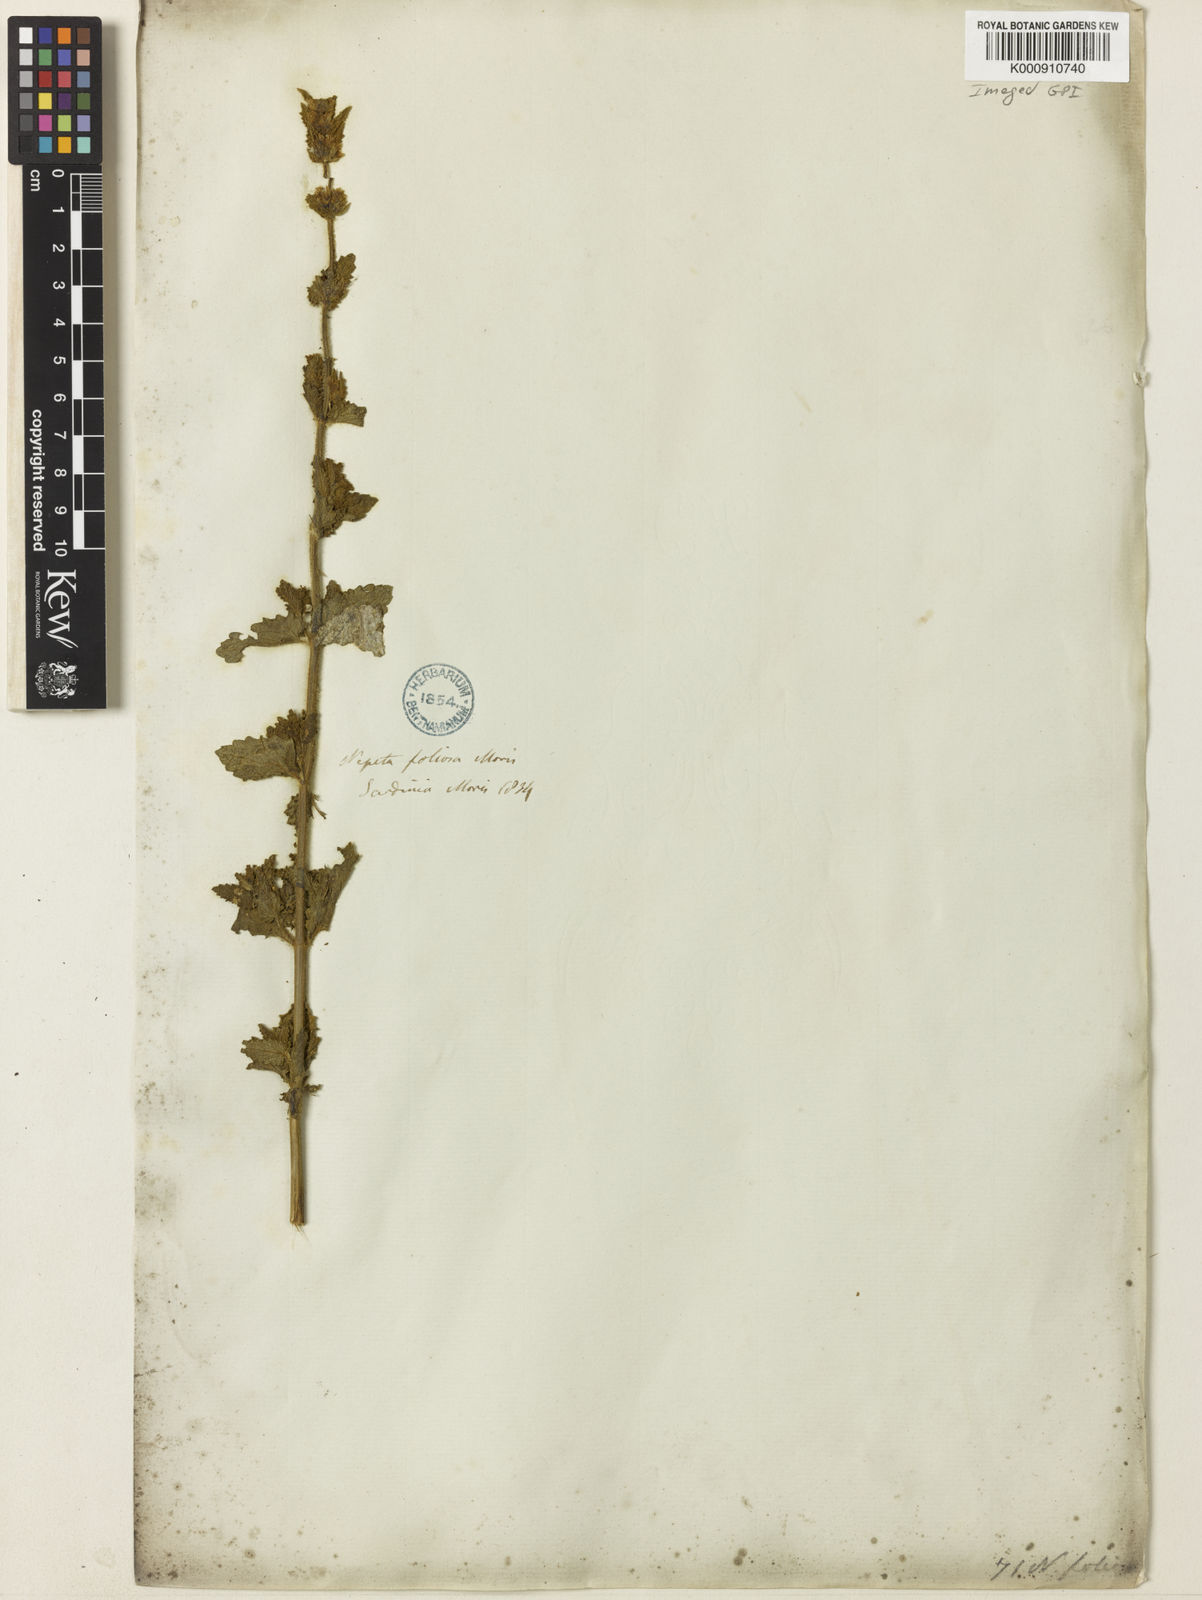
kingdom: Plantae
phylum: Tracheophyta
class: Magnoliopsida
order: Lamiales
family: Lamiaceae
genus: Nepeta
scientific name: Nepeta foliosa
